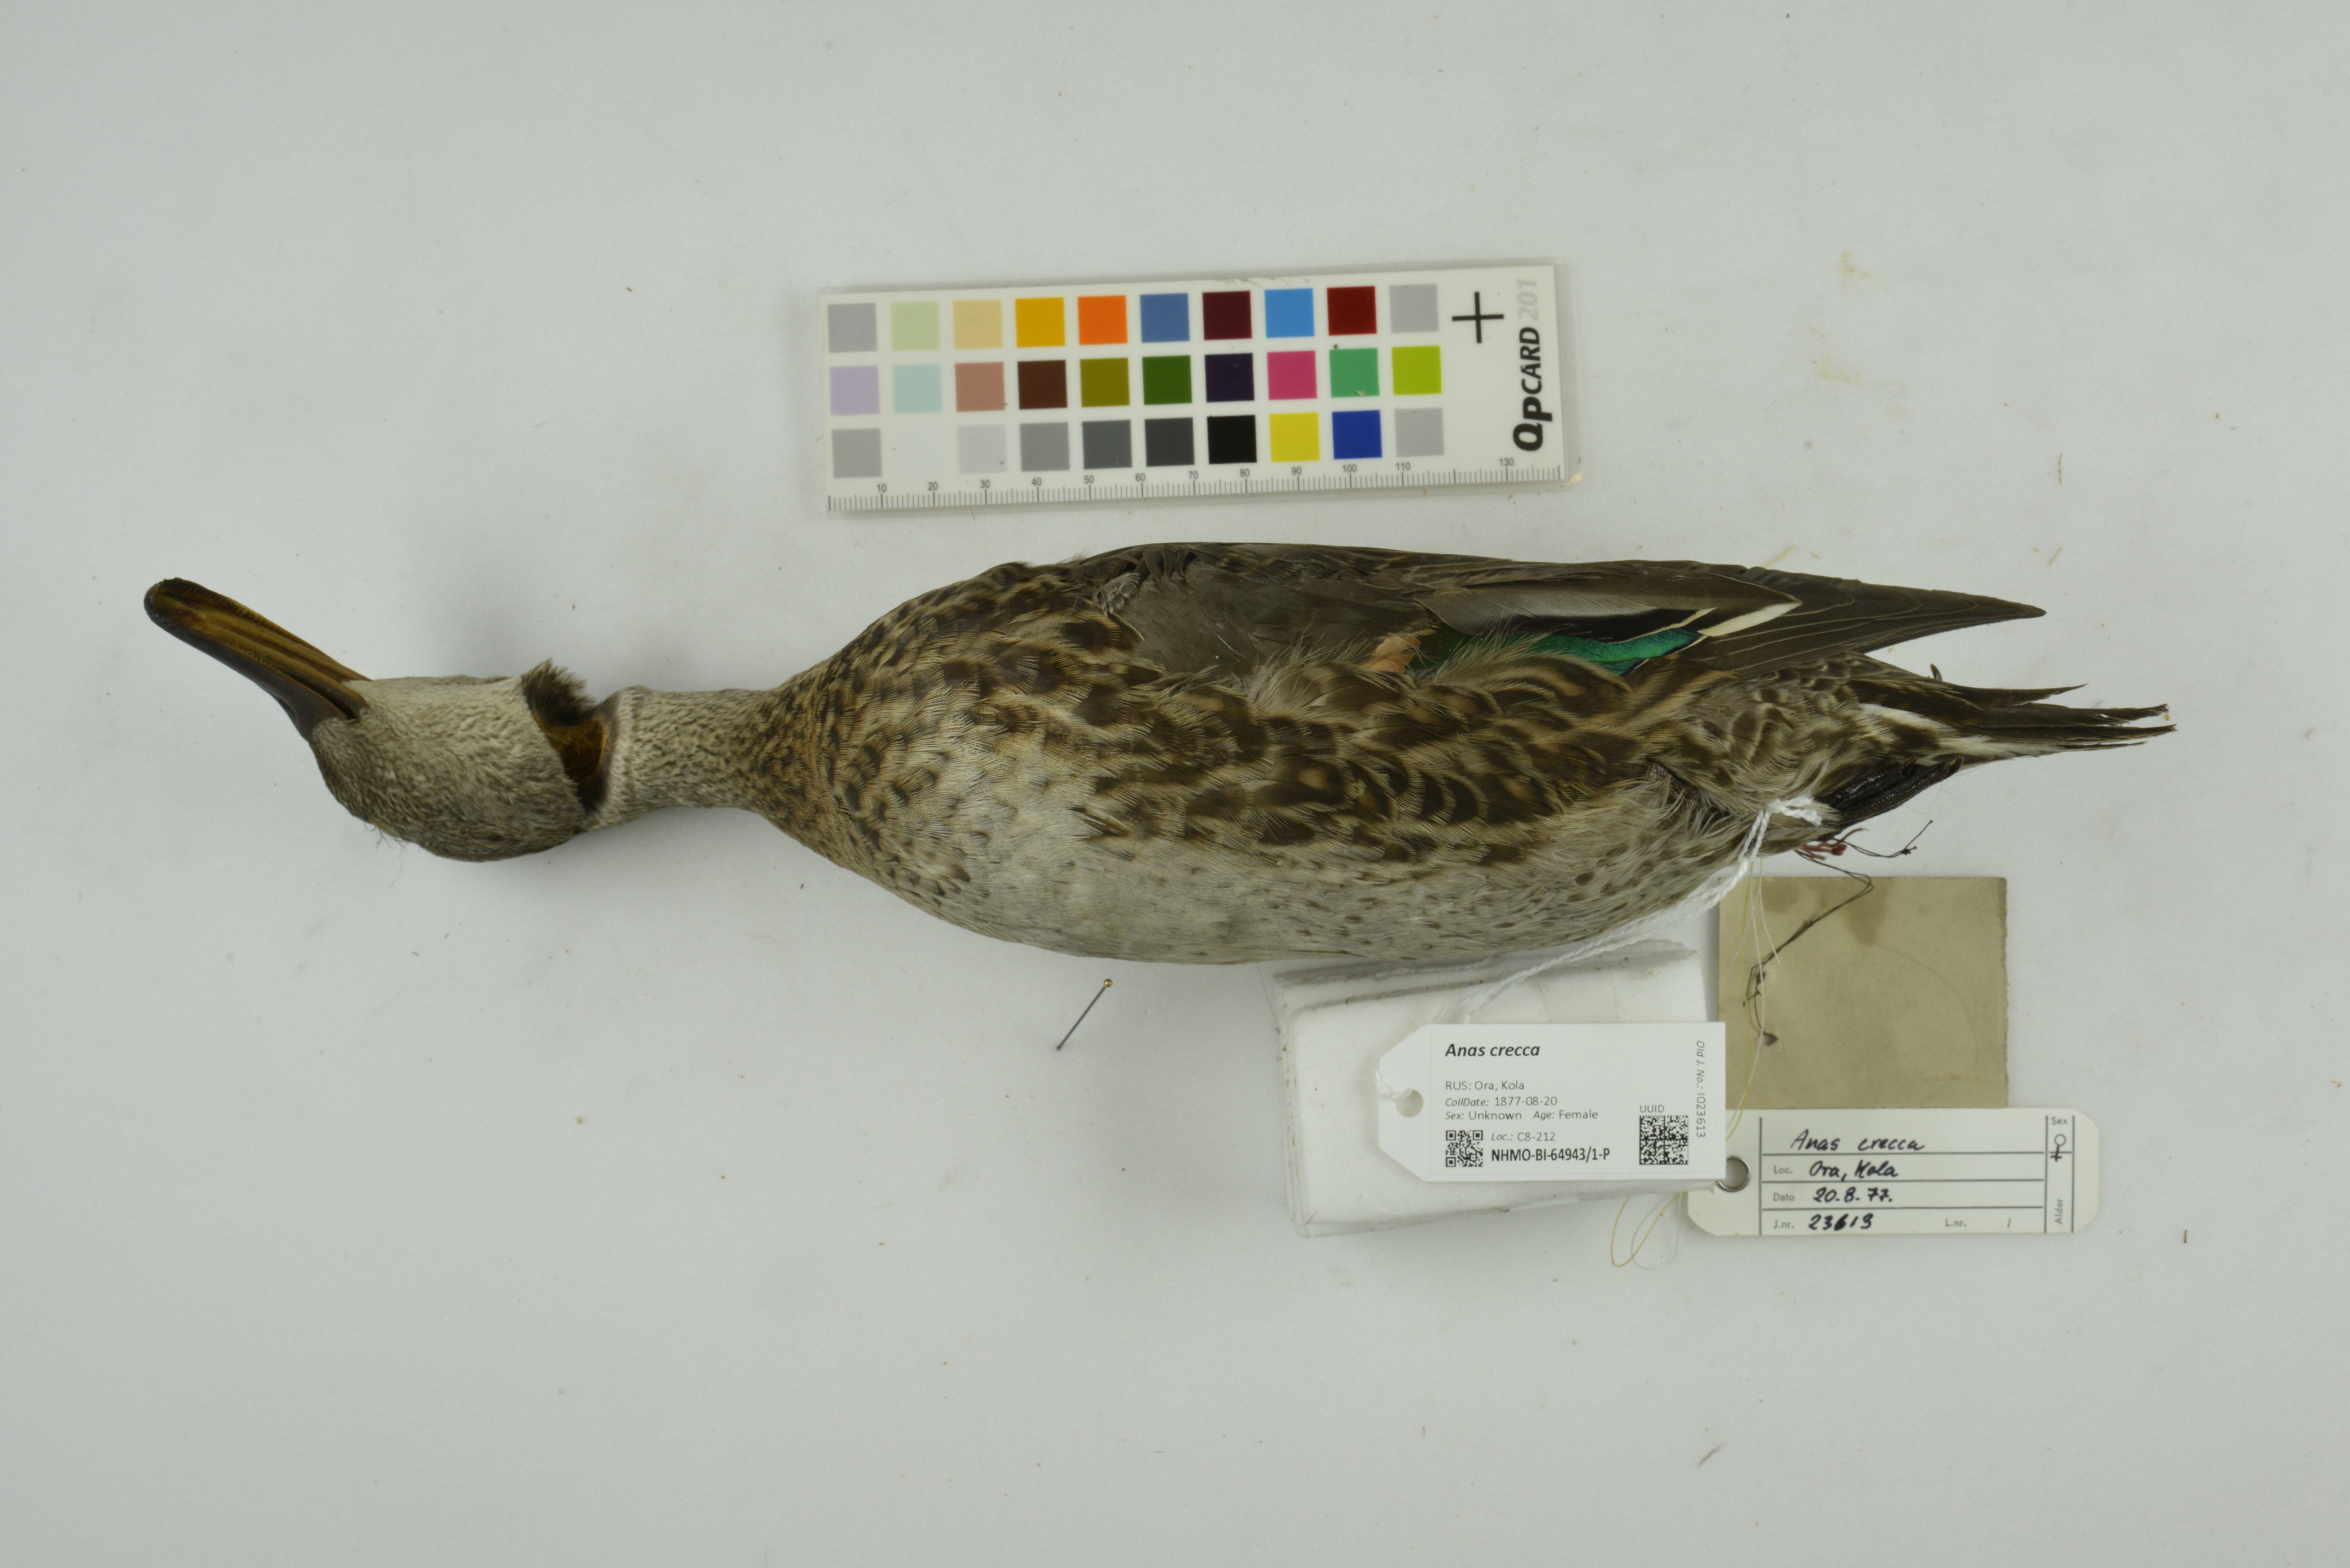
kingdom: Animalia
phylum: Chordata
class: Aves
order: Anseriformes
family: Anatidae
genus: Anas
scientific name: Anas crecca
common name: Eurasian teal
